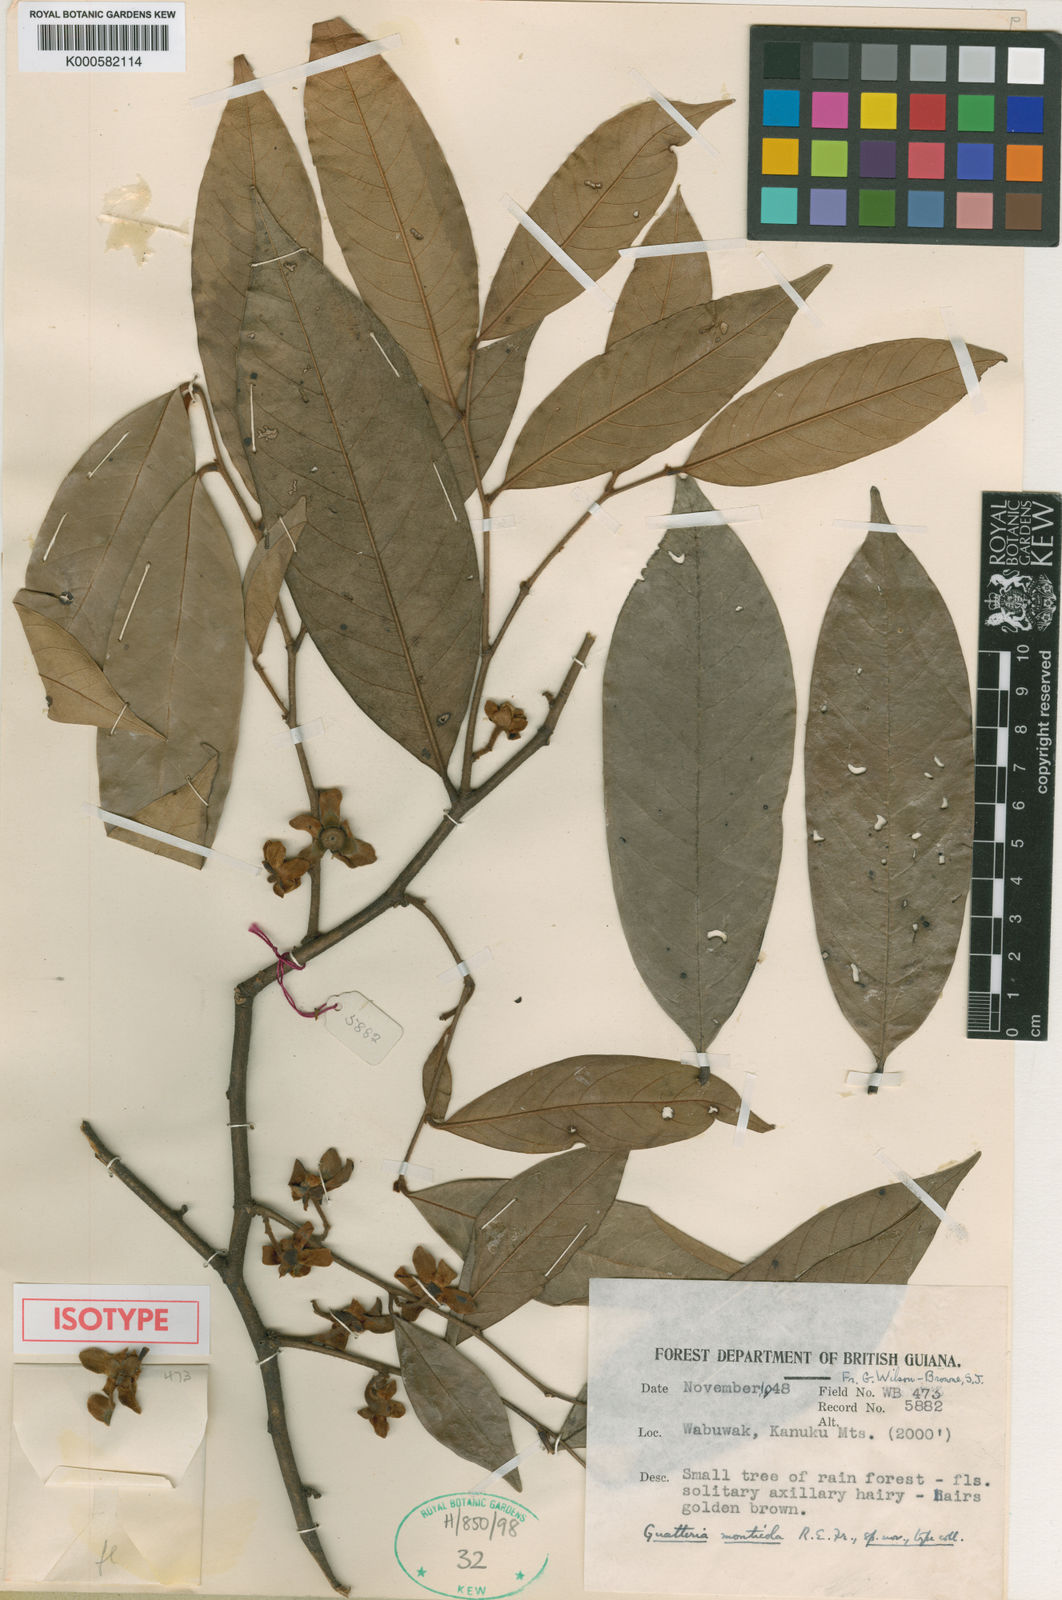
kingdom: Plantae
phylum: Tracheophyta
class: Magnoliopsida
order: Magnoliales
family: Annonaceae
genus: Guatteria
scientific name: Guatteria monticola
